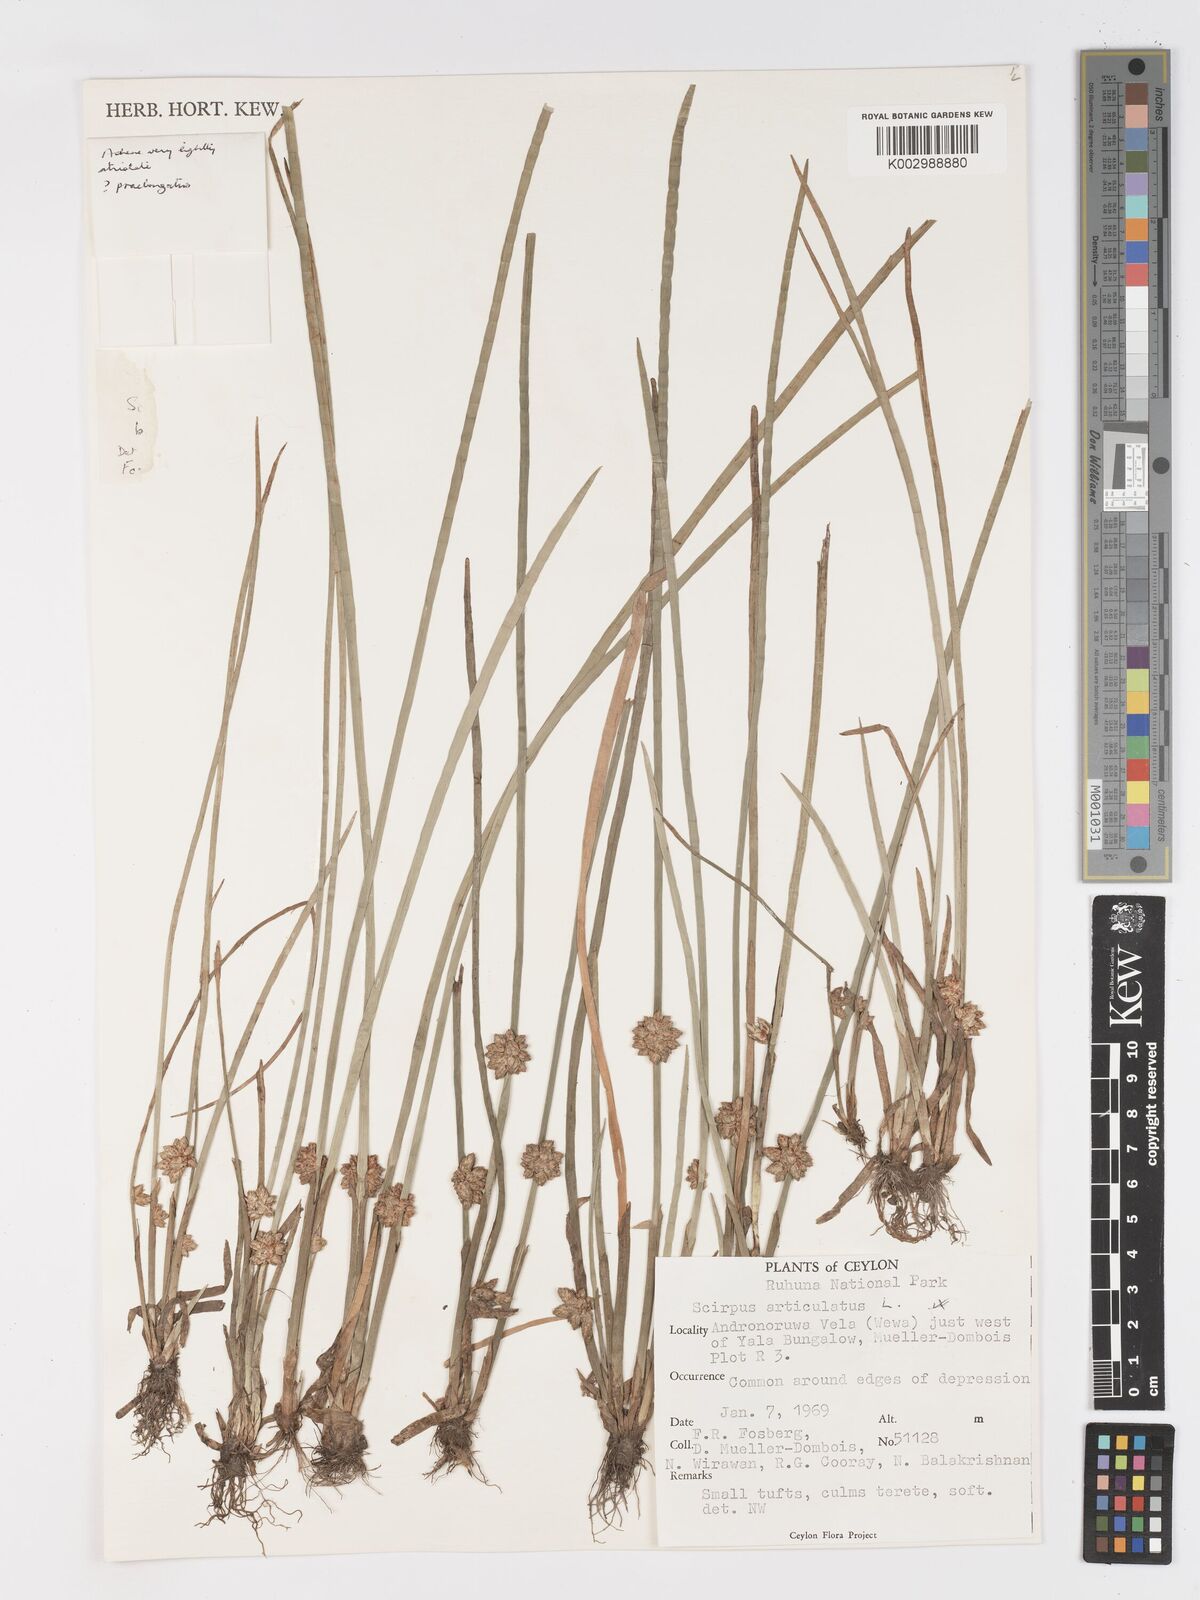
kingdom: Plantae
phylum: Tracheophyta
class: Liliopsida
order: Poales
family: Cyperaceae
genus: Schoenoplectiella
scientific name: Schoenoplectiella praelongata
